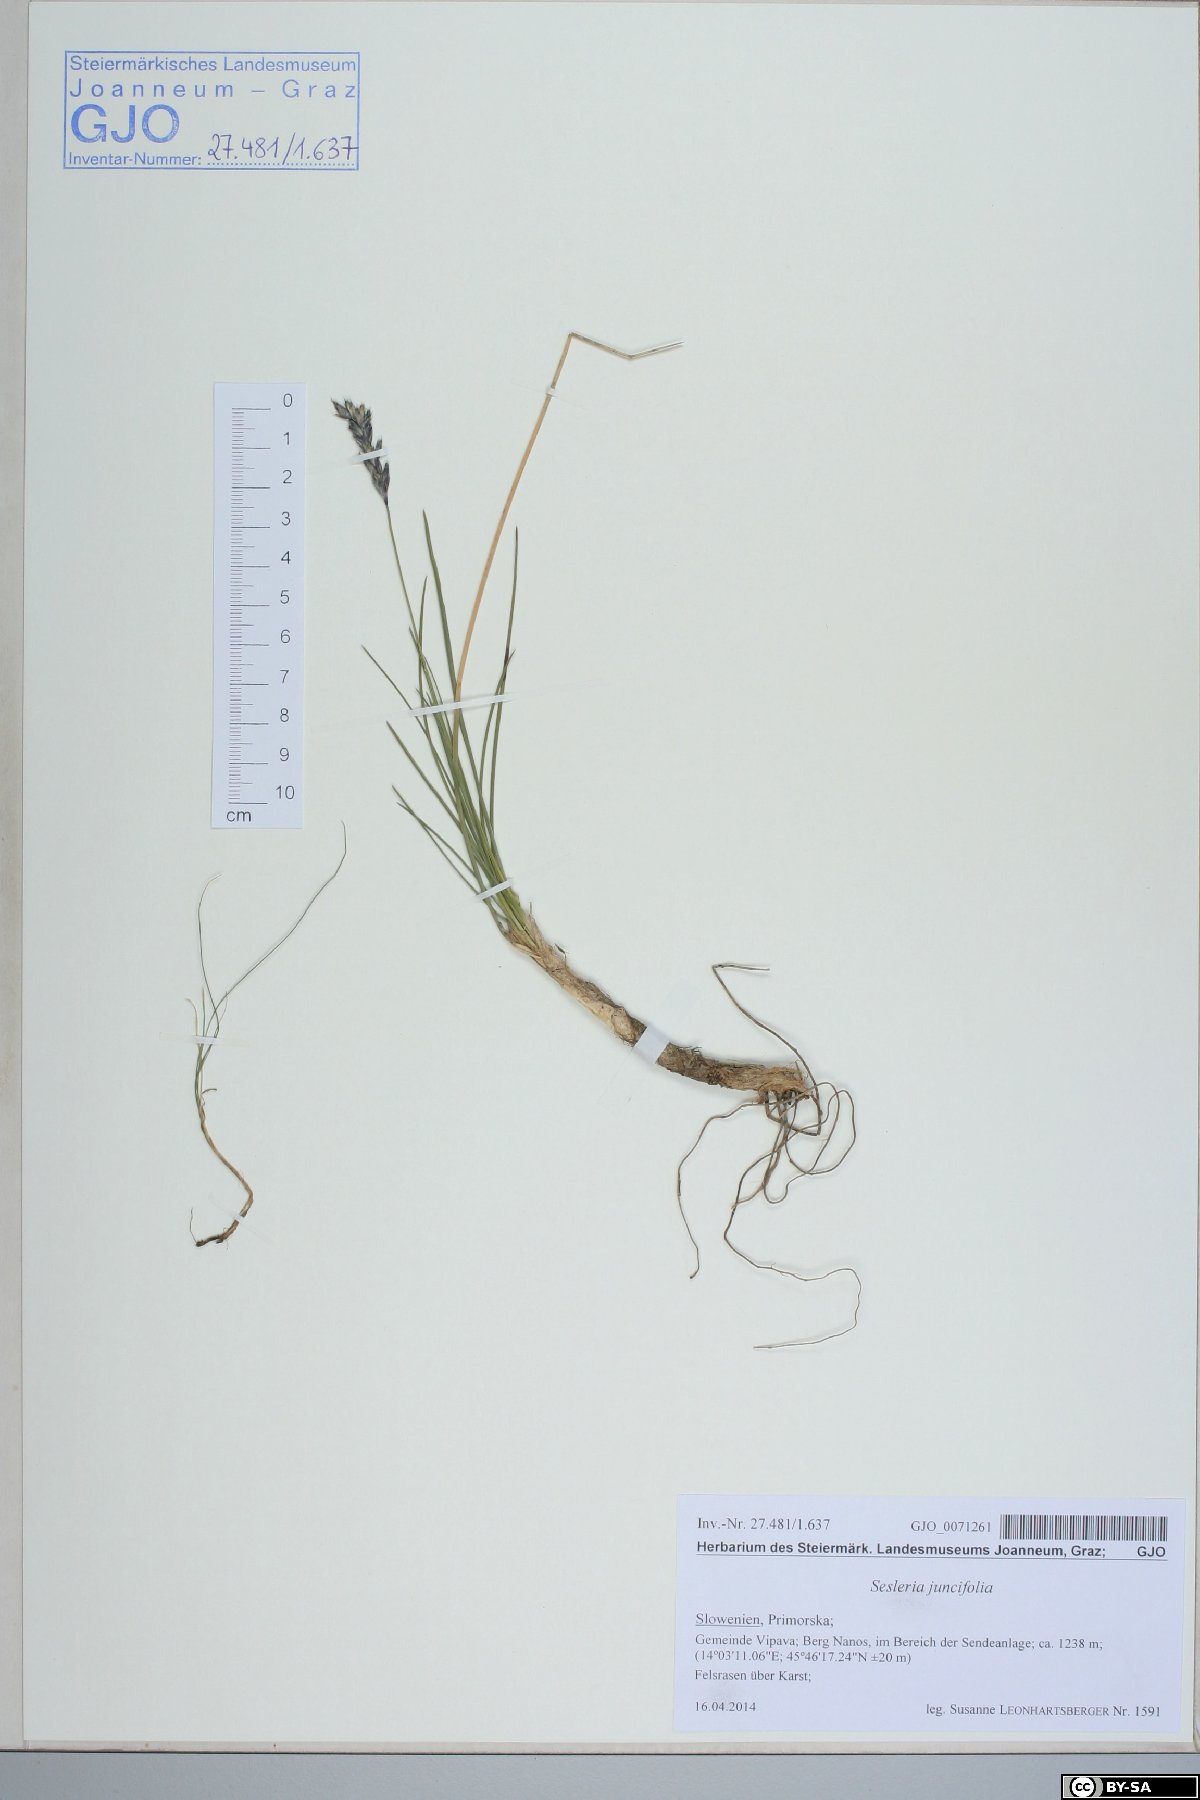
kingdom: Plantae
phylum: Tracheophyta
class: Liliopsida
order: Poales
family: Poaceae
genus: Sesleria
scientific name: Sesleria juncifolia
